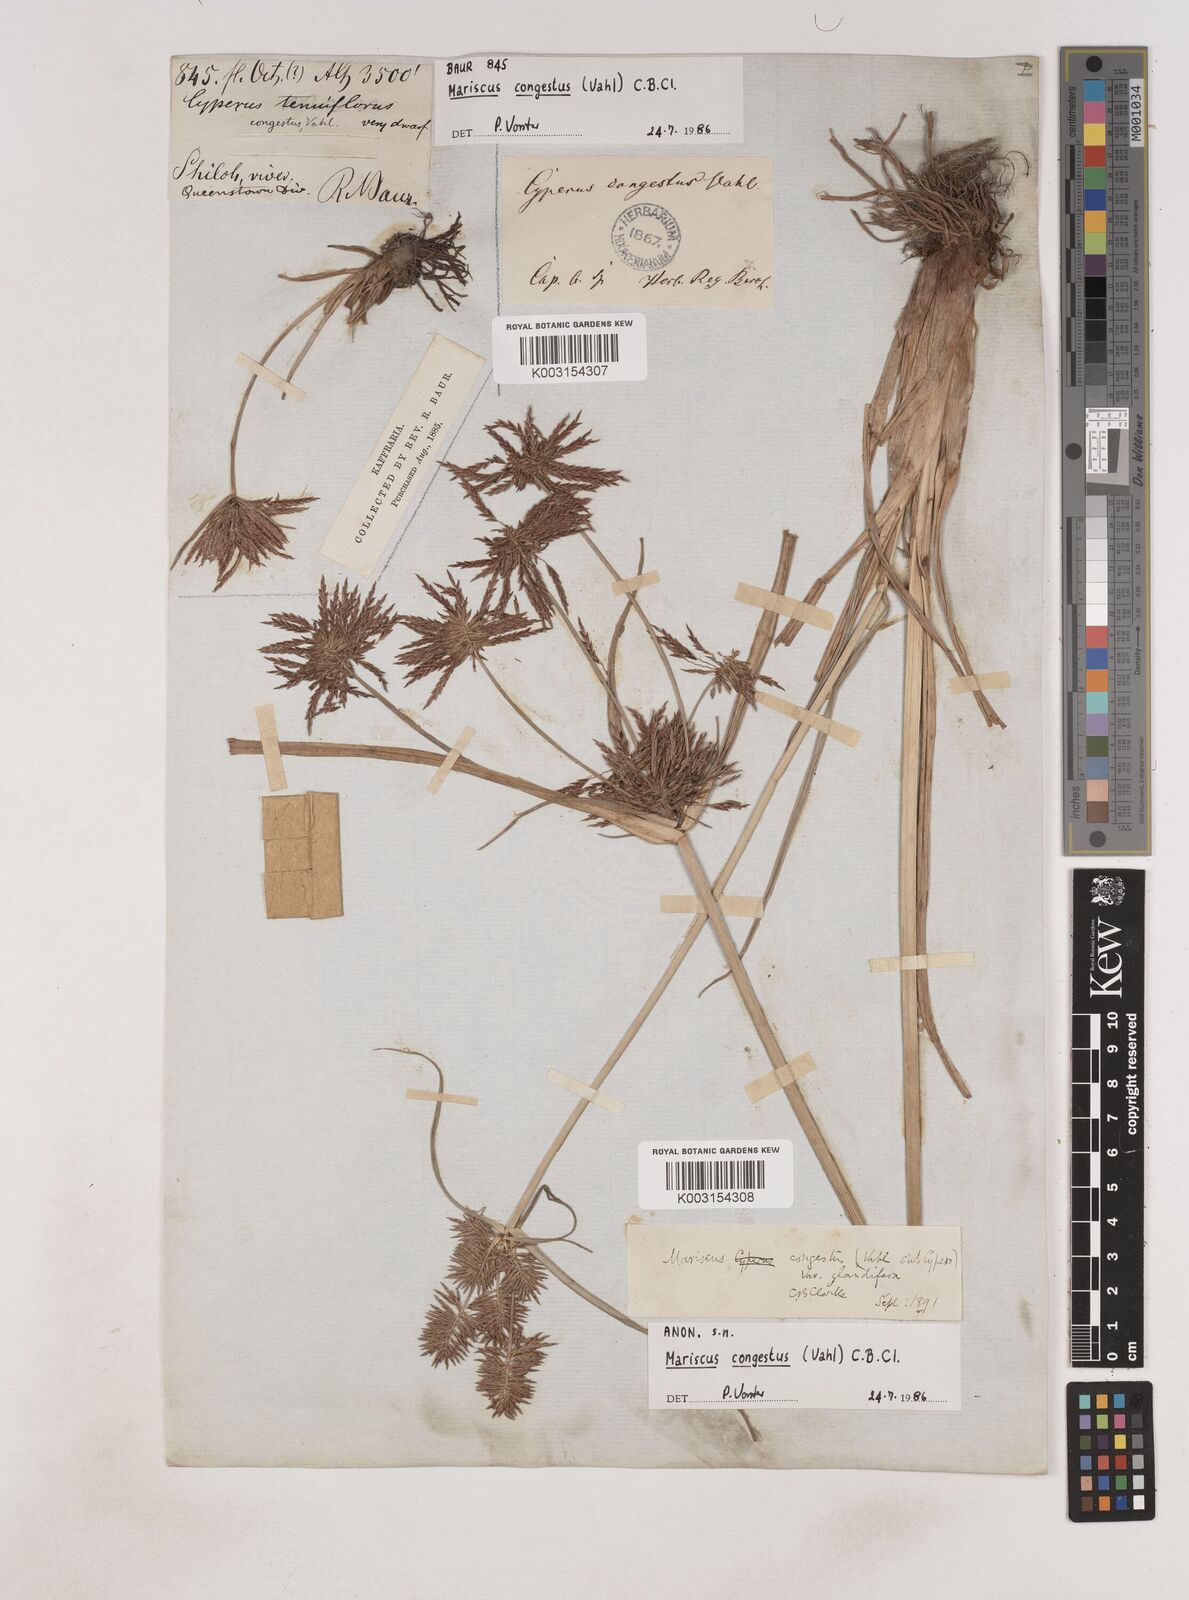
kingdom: Plantae
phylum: Tracheophyta
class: Liliopsida
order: Poales
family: Cyperaceae
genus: Cyperus
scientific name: Cyperus congestus
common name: Dense flat sedge
